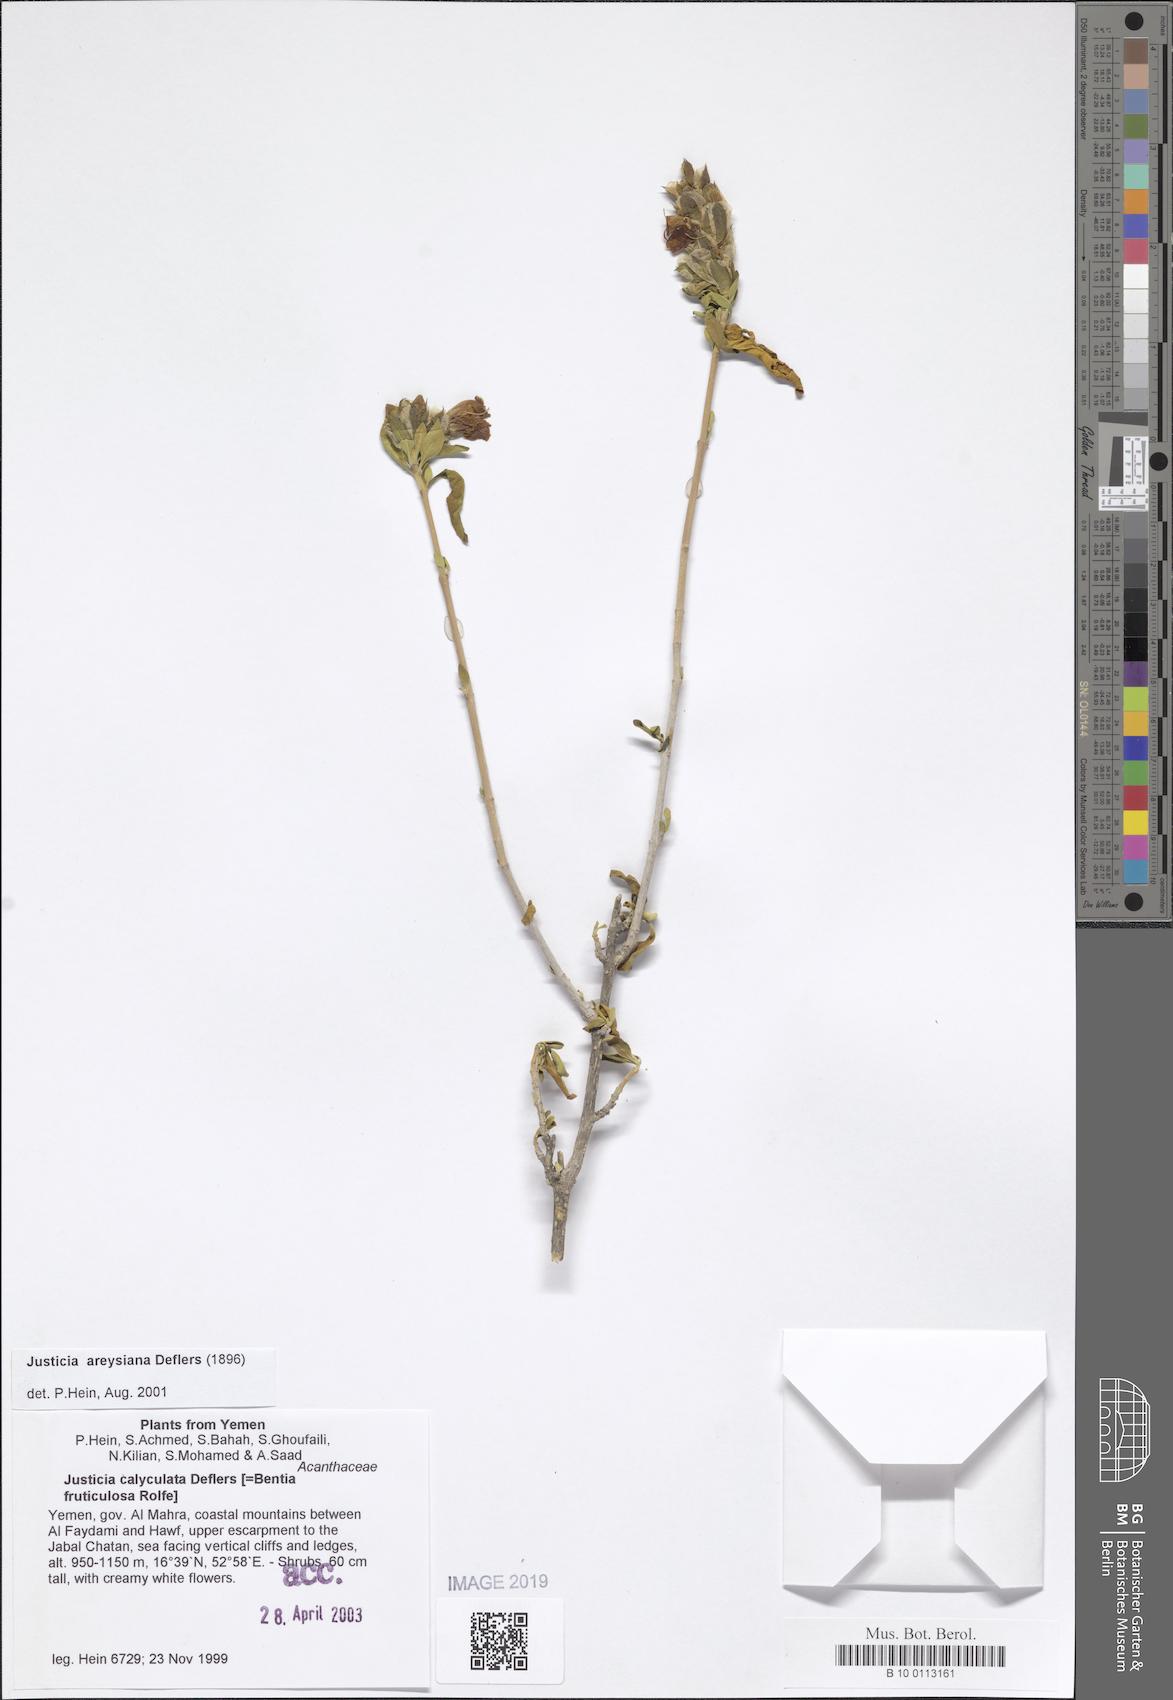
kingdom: Plantae
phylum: Tracheophyta
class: Magnoliopsida
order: Lamiales
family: Acanthaceae
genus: Justicia
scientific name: Justicia areysiana
